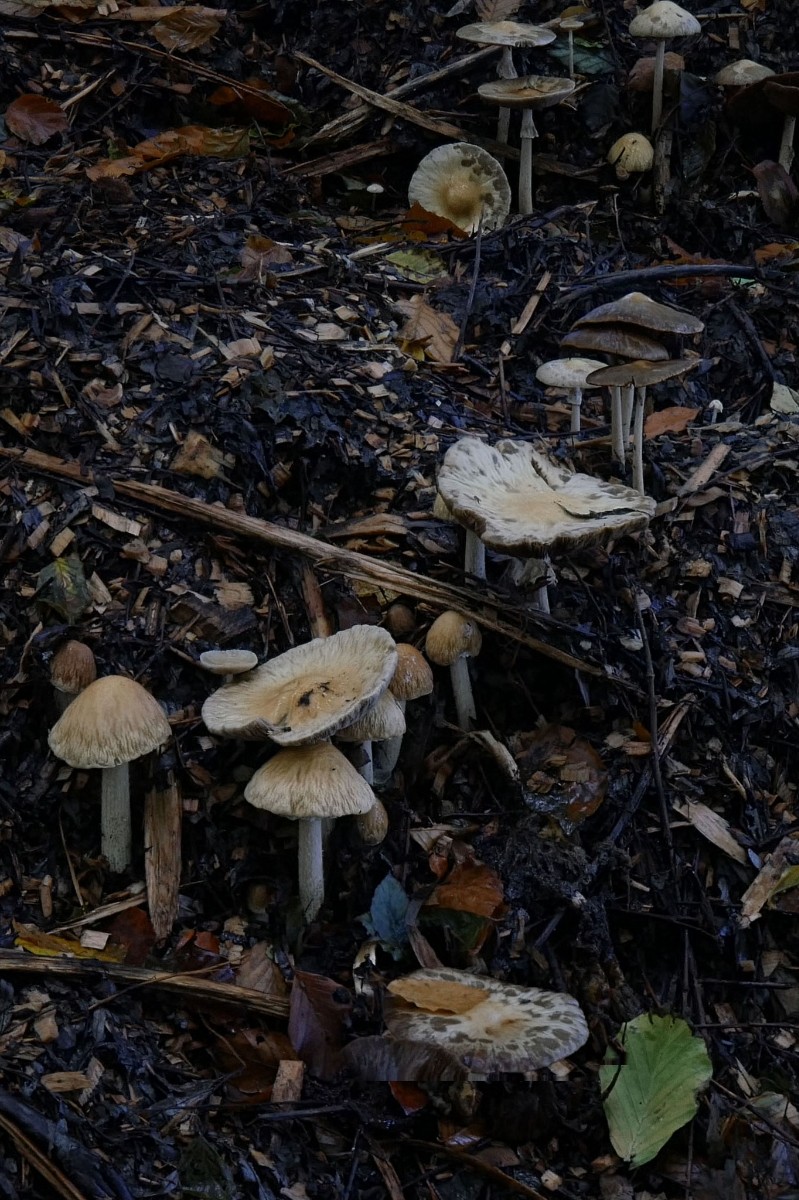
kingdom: Fungi
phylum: Basidiomycota
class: Agaricomycetes
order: Agaricales
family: Strophariaceae
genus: Agrocybe
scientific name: Agrocybe rivulosa
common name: året agerhat
